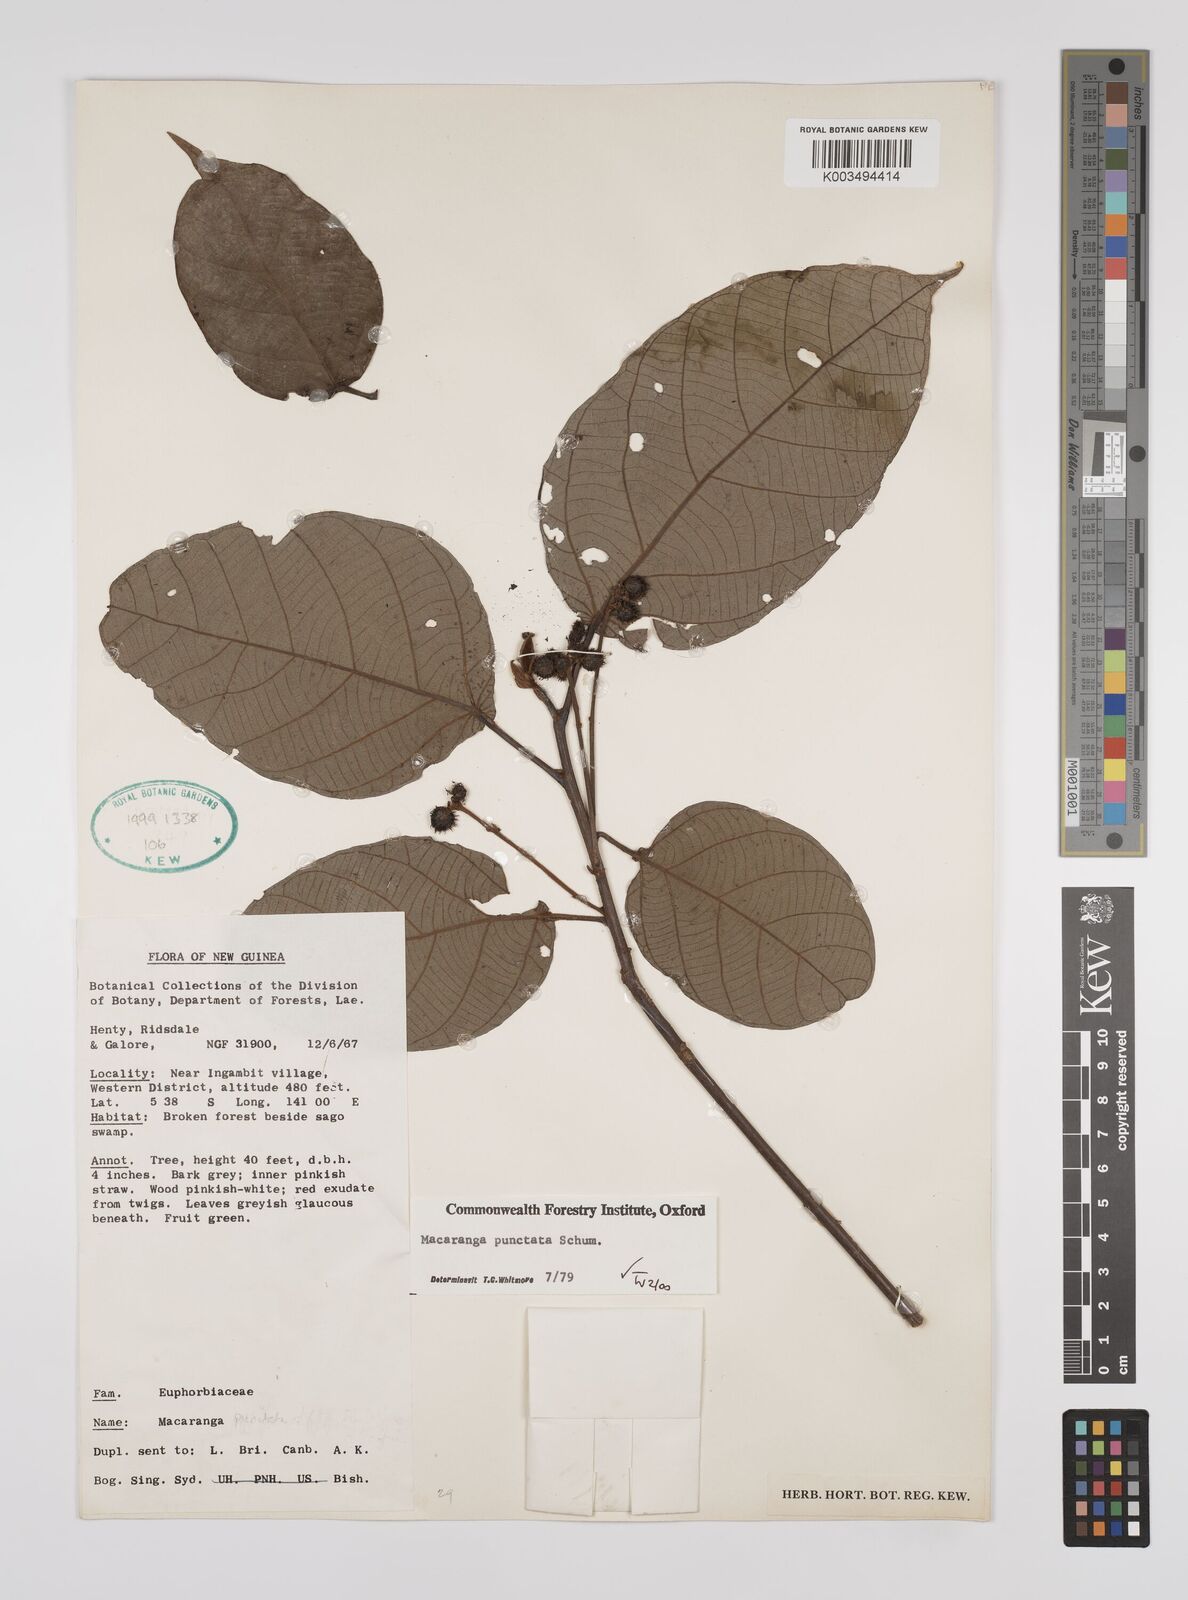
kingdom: Plantae
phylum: Tracheophyta
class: Magnoliopsida
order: Malpighiales
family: Euphorbiaceae
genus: Macaranga
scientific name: Macaranga punctata
